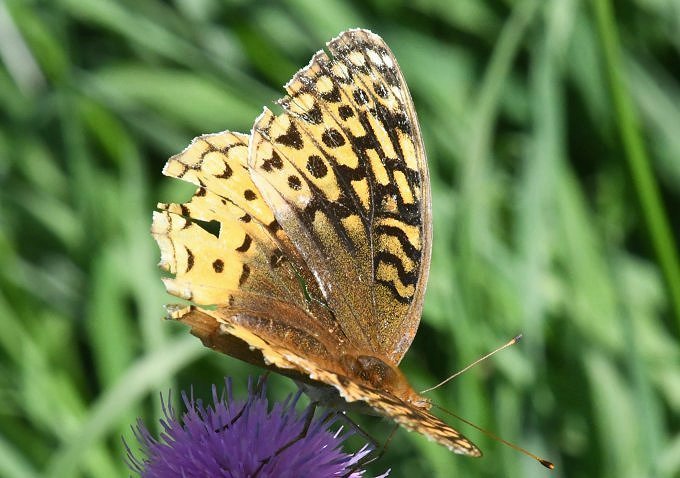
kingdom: Animalia
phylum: Arthropoda
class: Insecta
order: Lepidoptera
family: Nymphalidae
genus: Speyeria
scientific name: Speyeria cybele
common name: Great Spangled Fritillary
